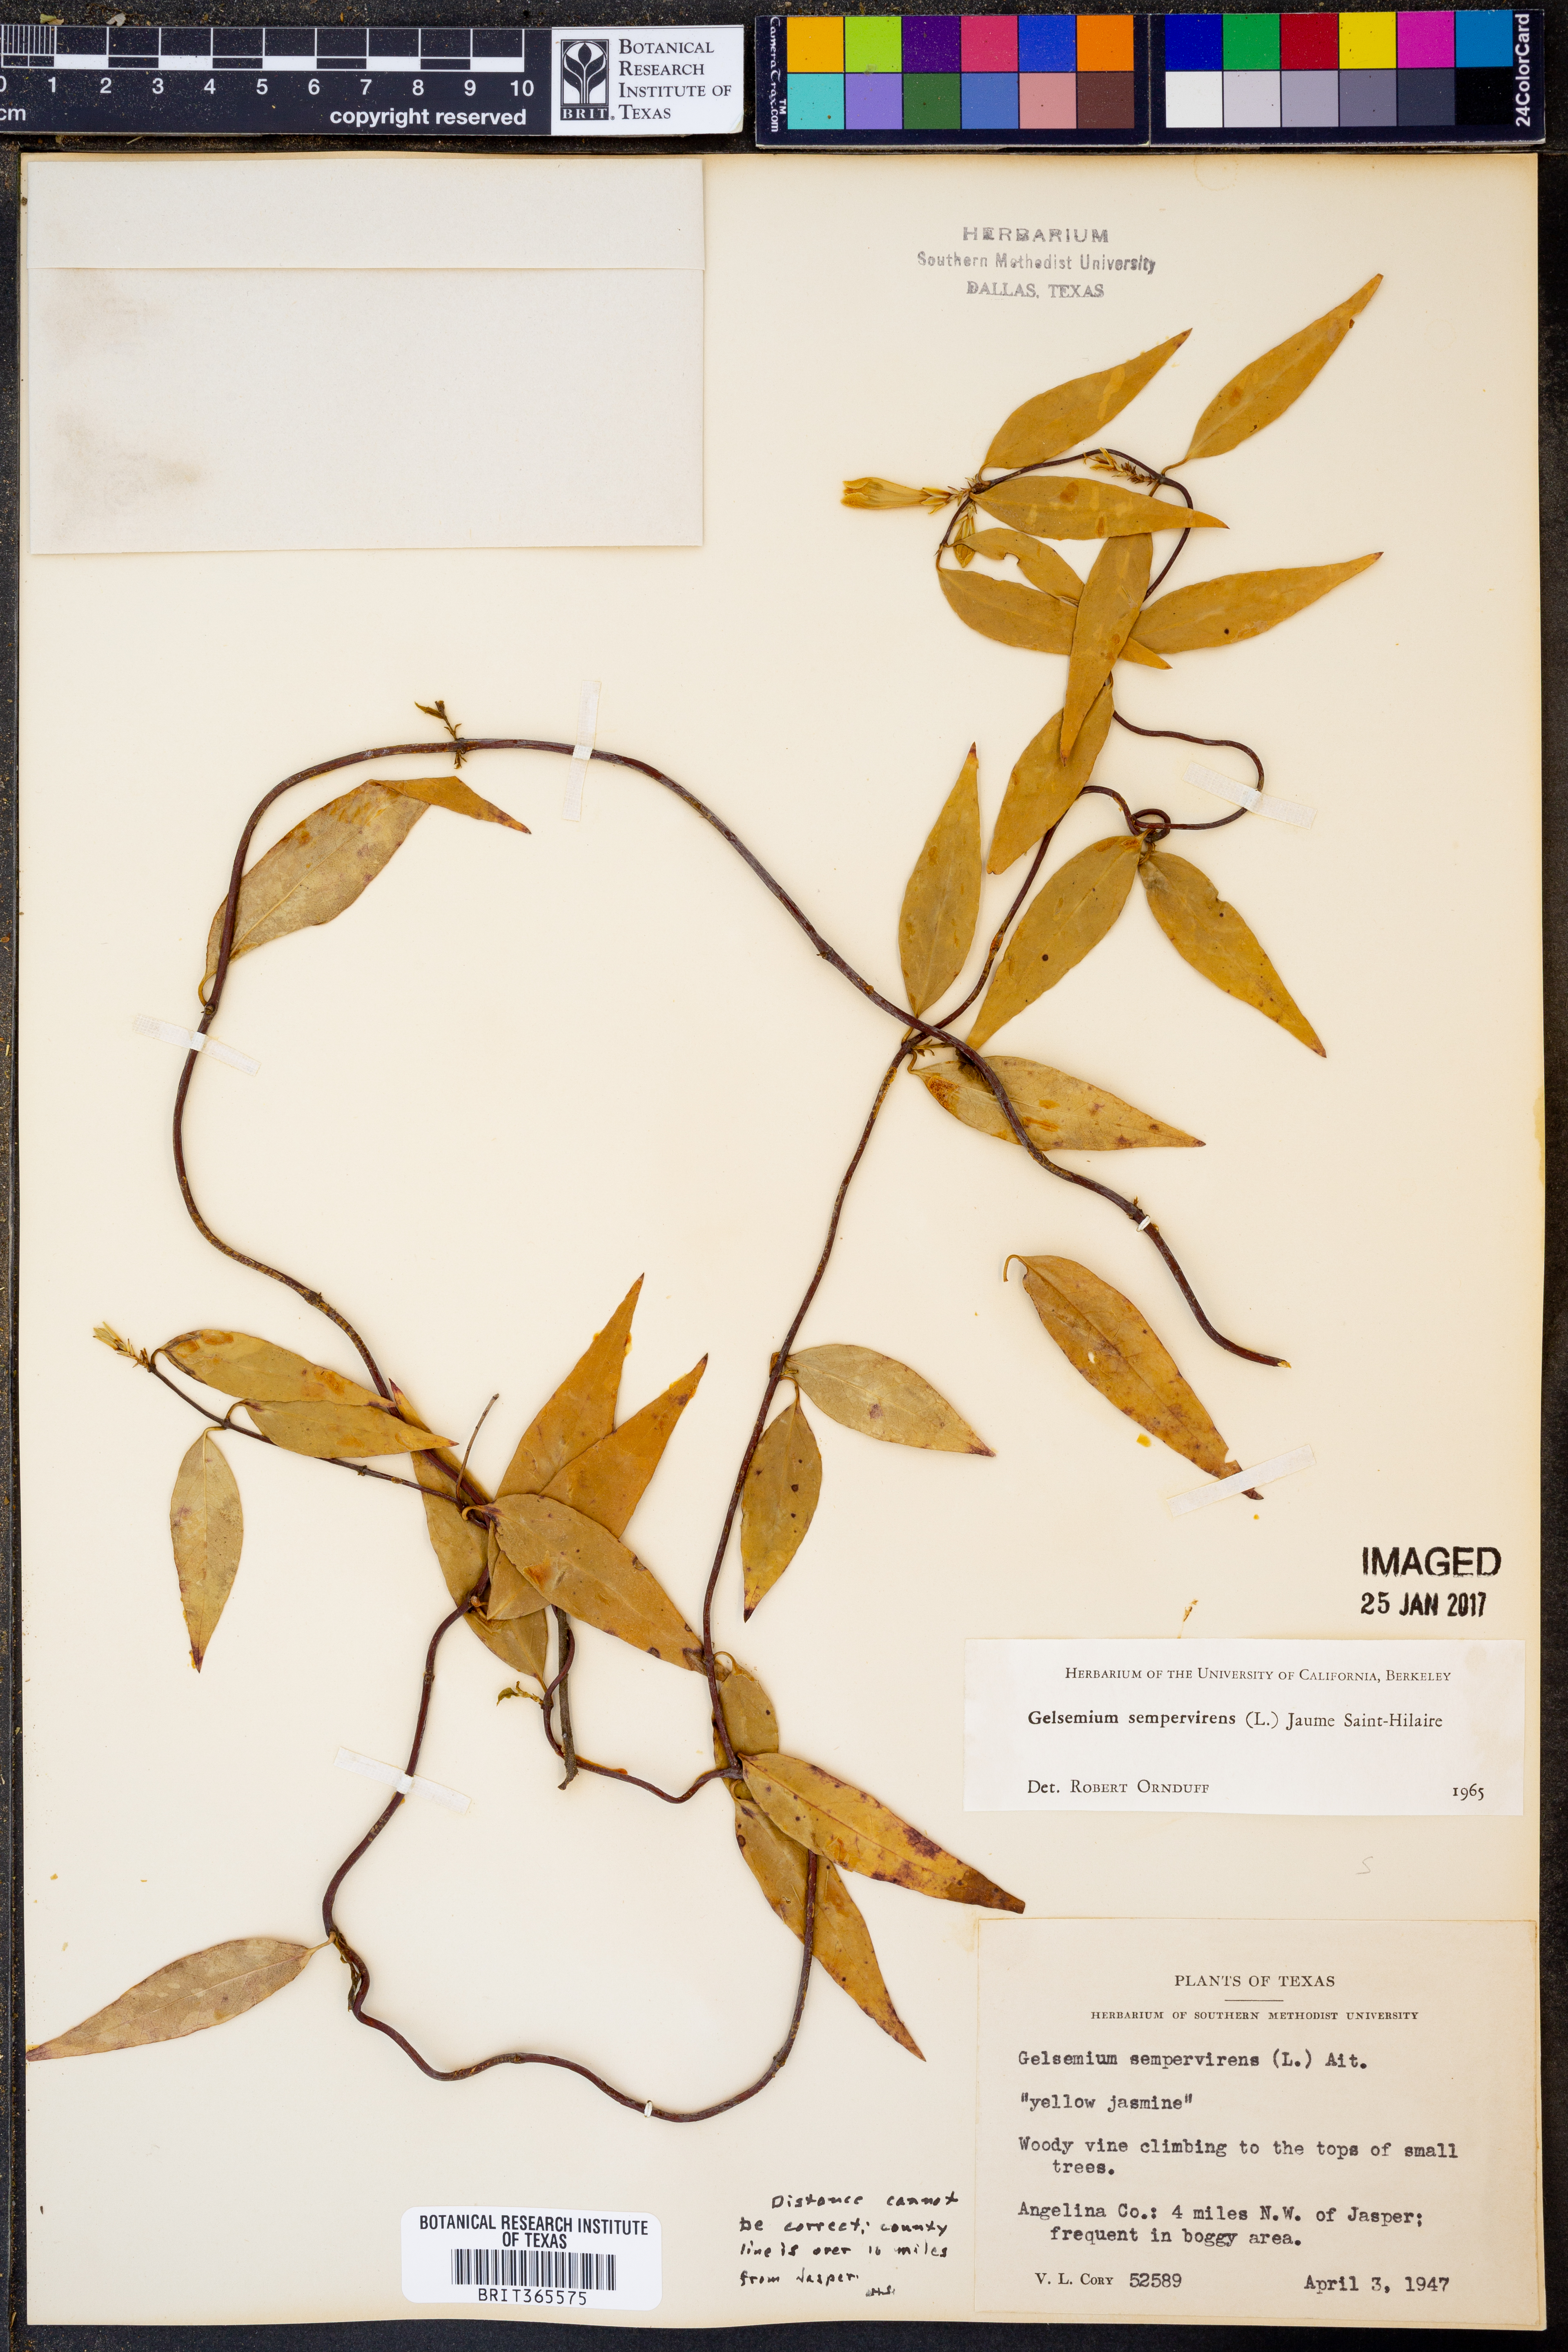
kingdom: Plantae
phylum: Tracheophyta
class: Magnoliopsida
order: Gentianales
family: Gelsemiaceae
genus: Gelsemium
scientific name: Gelsemium sempervirens
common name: Carolina-jasmine
